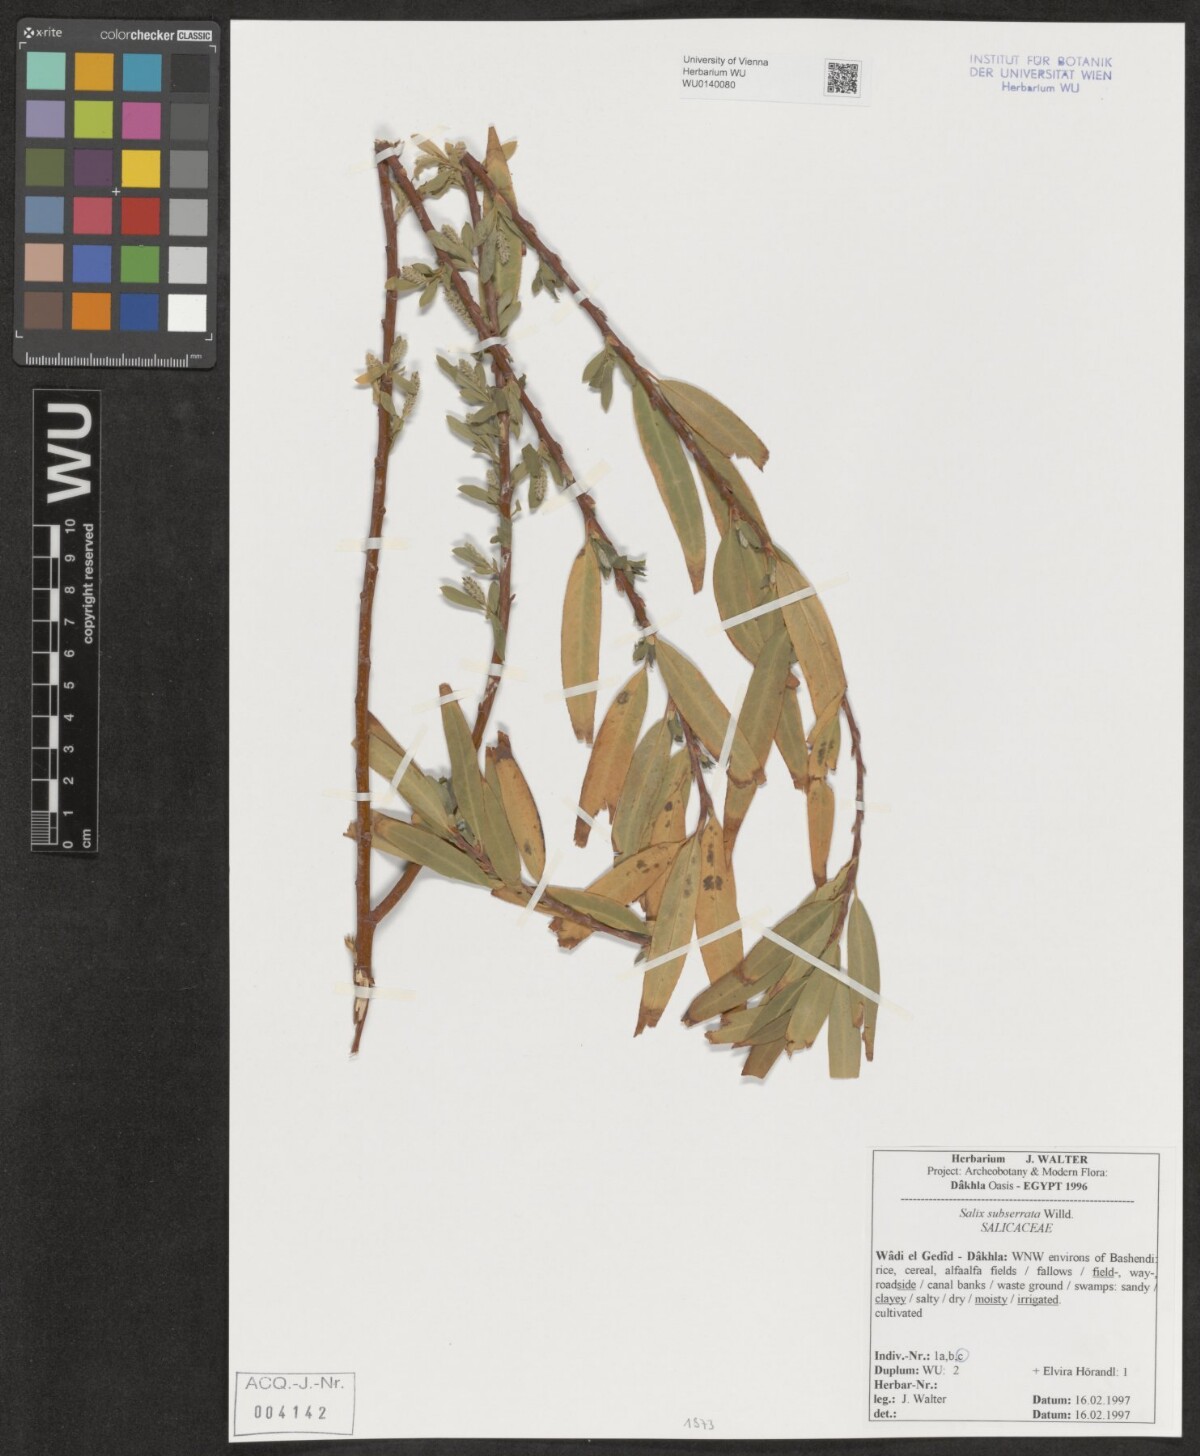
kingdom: Plantae
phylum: Tracheophyta
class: Magnoliopsida
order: Malpighiales
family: Salicaceae
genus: Salix
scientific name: Salix mucronata
